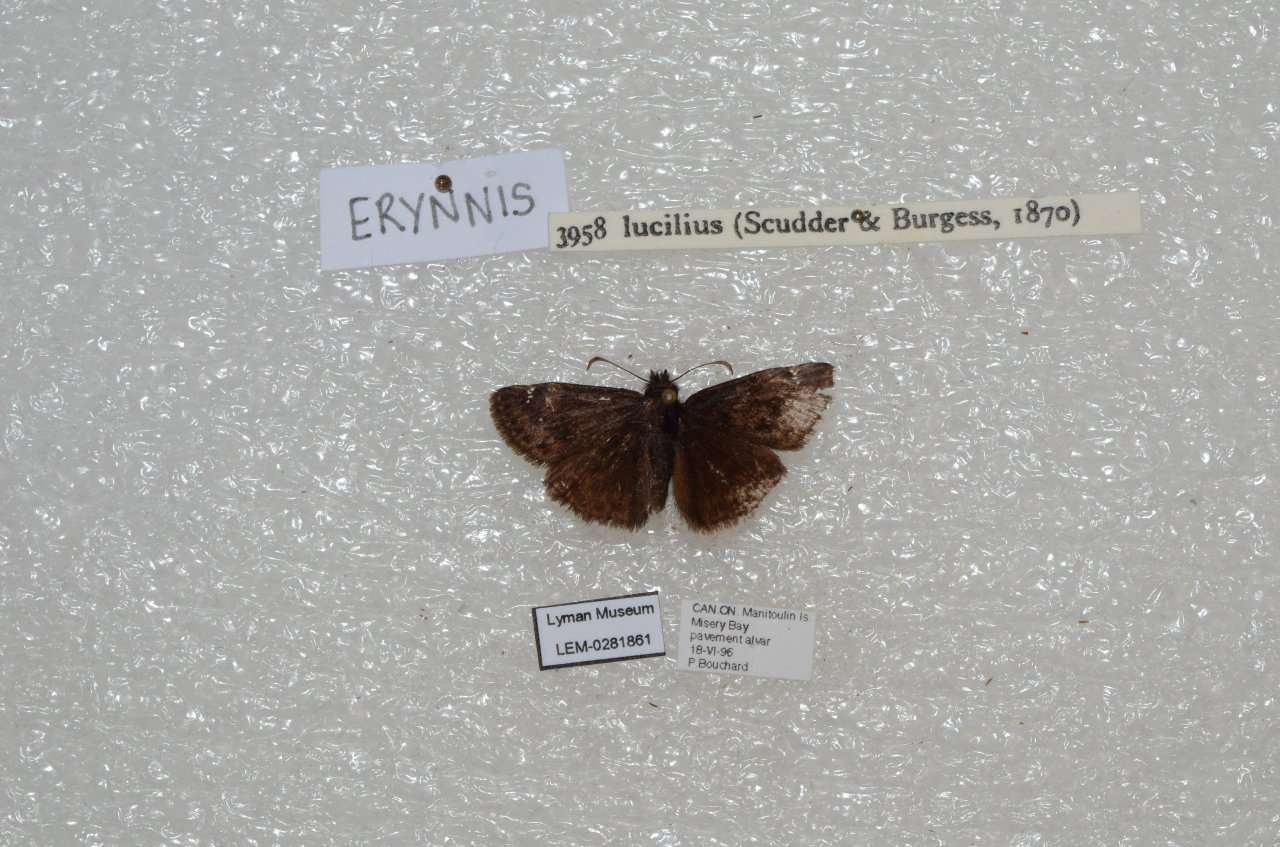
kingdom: Animalia
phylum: Arthropoda
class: Insecta
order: Lepidoptera
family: Hesperiidae
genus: Gesta
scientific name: Gesta
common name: Columbine Duskywing
